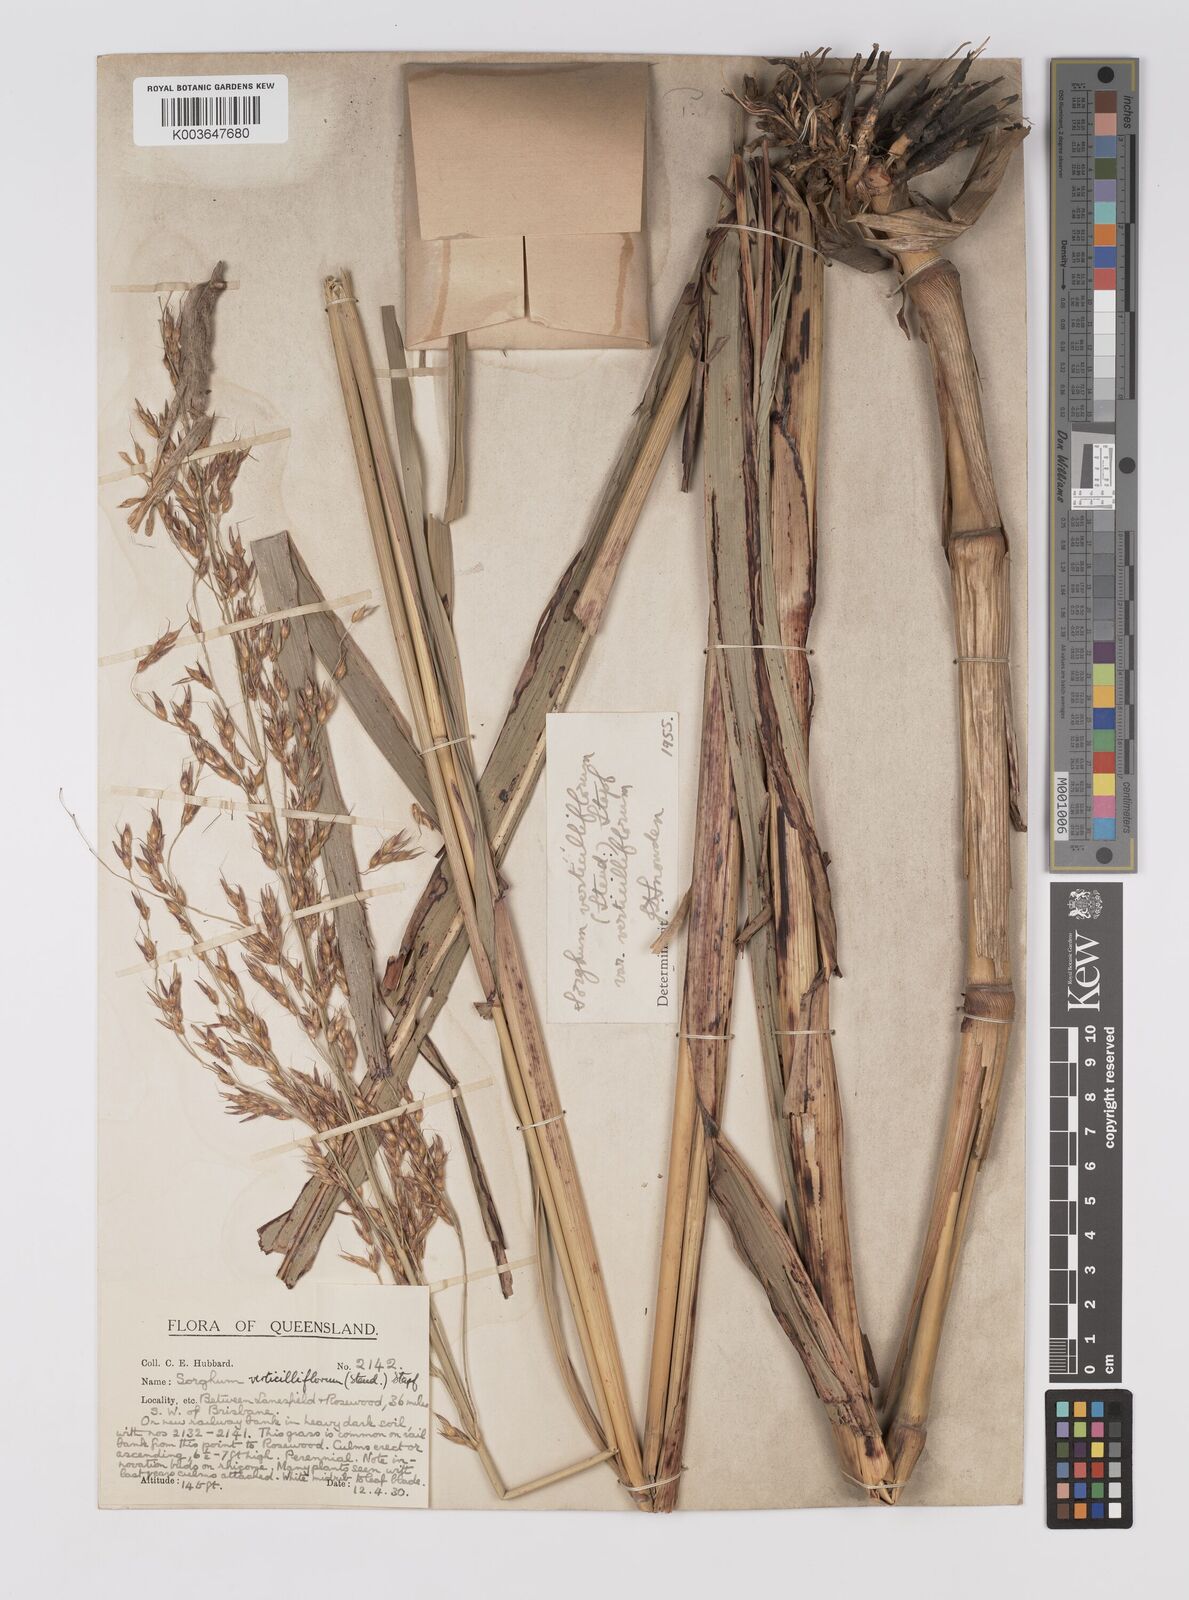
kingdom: Plantae
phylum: Tracheophyta
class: Liliopsida
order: Poales
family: Poaceae
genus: Sorghum
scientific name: Sorghum arundinaceum
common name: Sorghum
